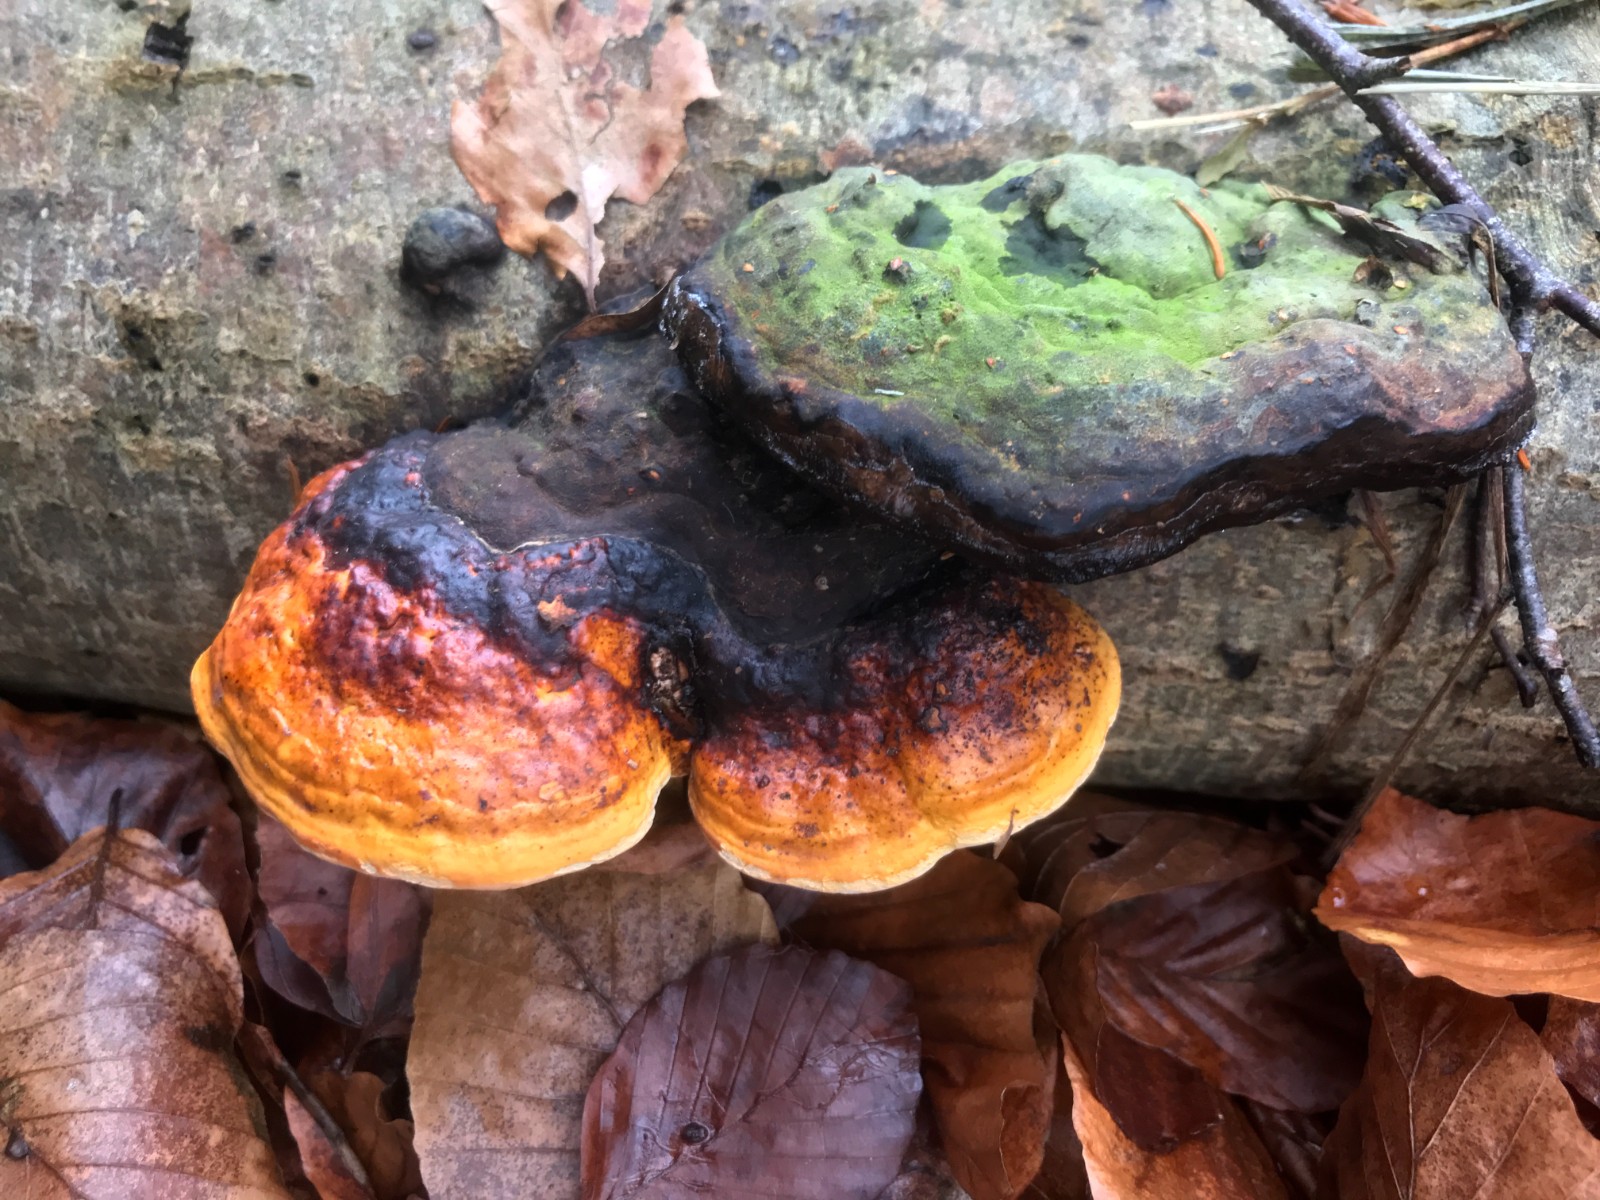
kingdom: Fungi
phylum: Basidiomycota
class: Agaricomycetes
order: Polyporales
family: Fomitopsidaceae
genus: Fomitopsis
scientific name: Fomitopsis pinicola
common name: randbæltet hovporesvamp
